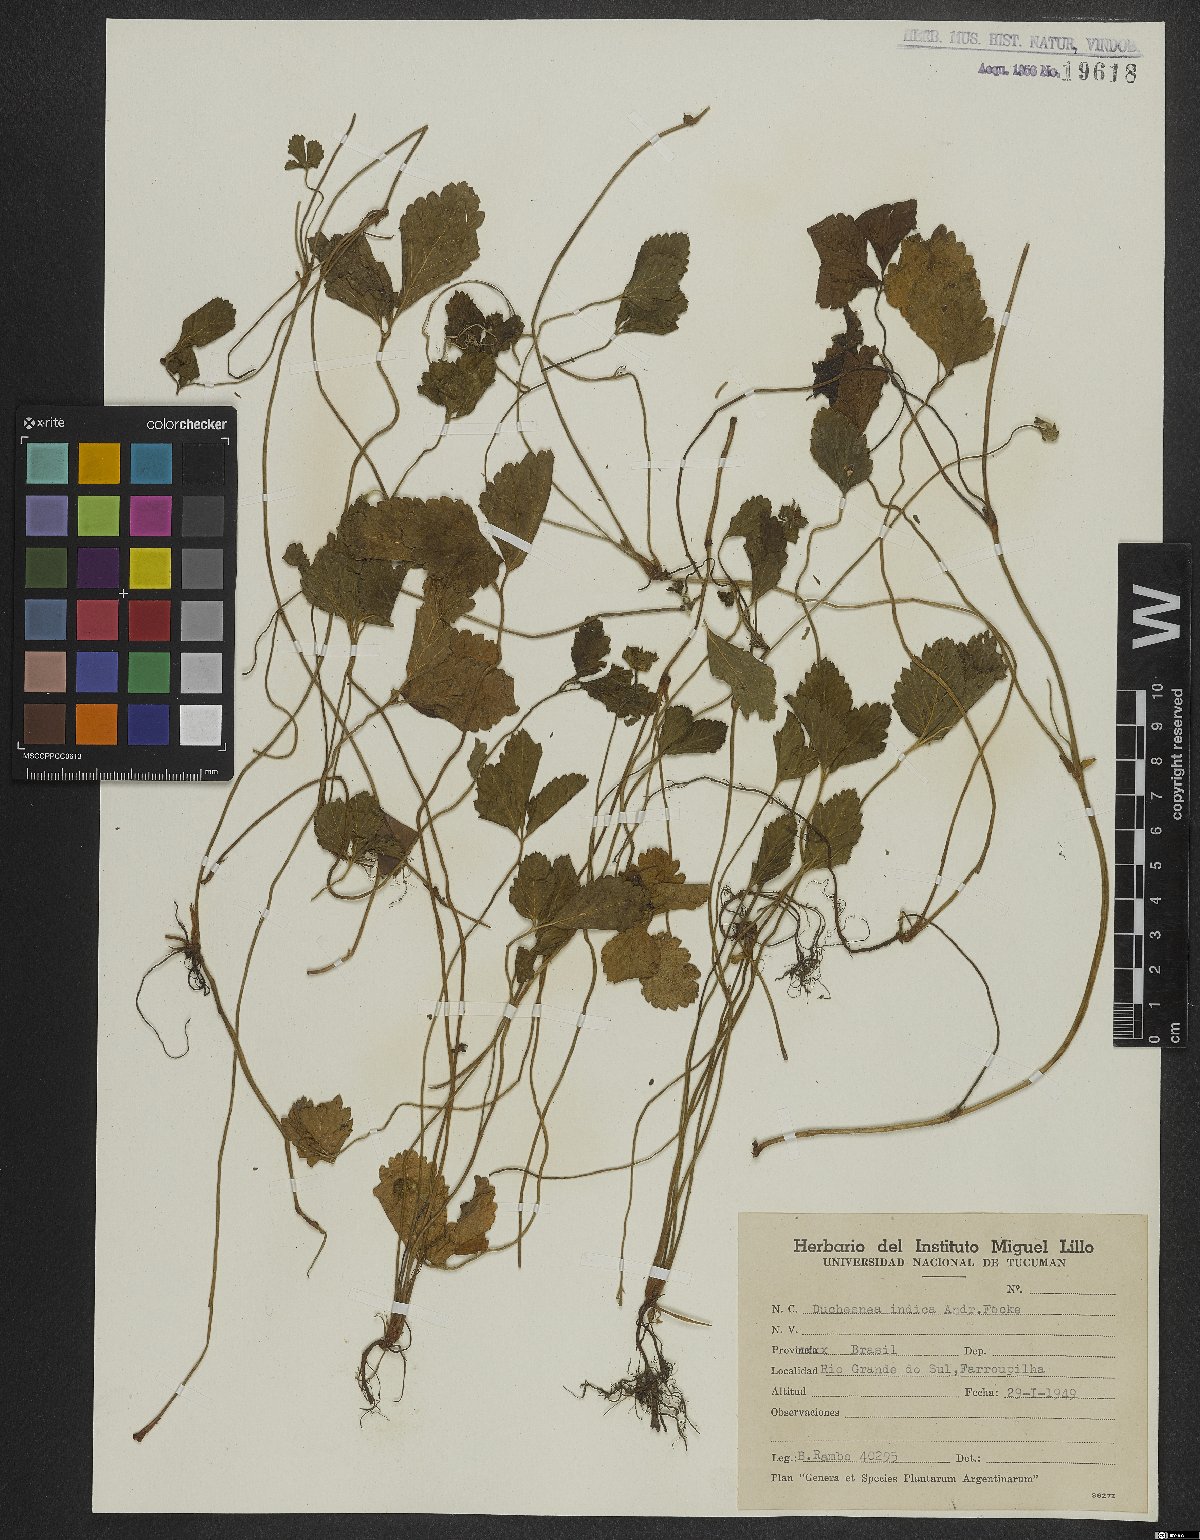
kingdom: Plantae
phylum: Tracheophyta
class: Magnoliopsida
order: Rosales
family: Rosaceae
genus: Potentilla
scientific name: Potentilla indica
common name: Yellow-flowered strawberry
